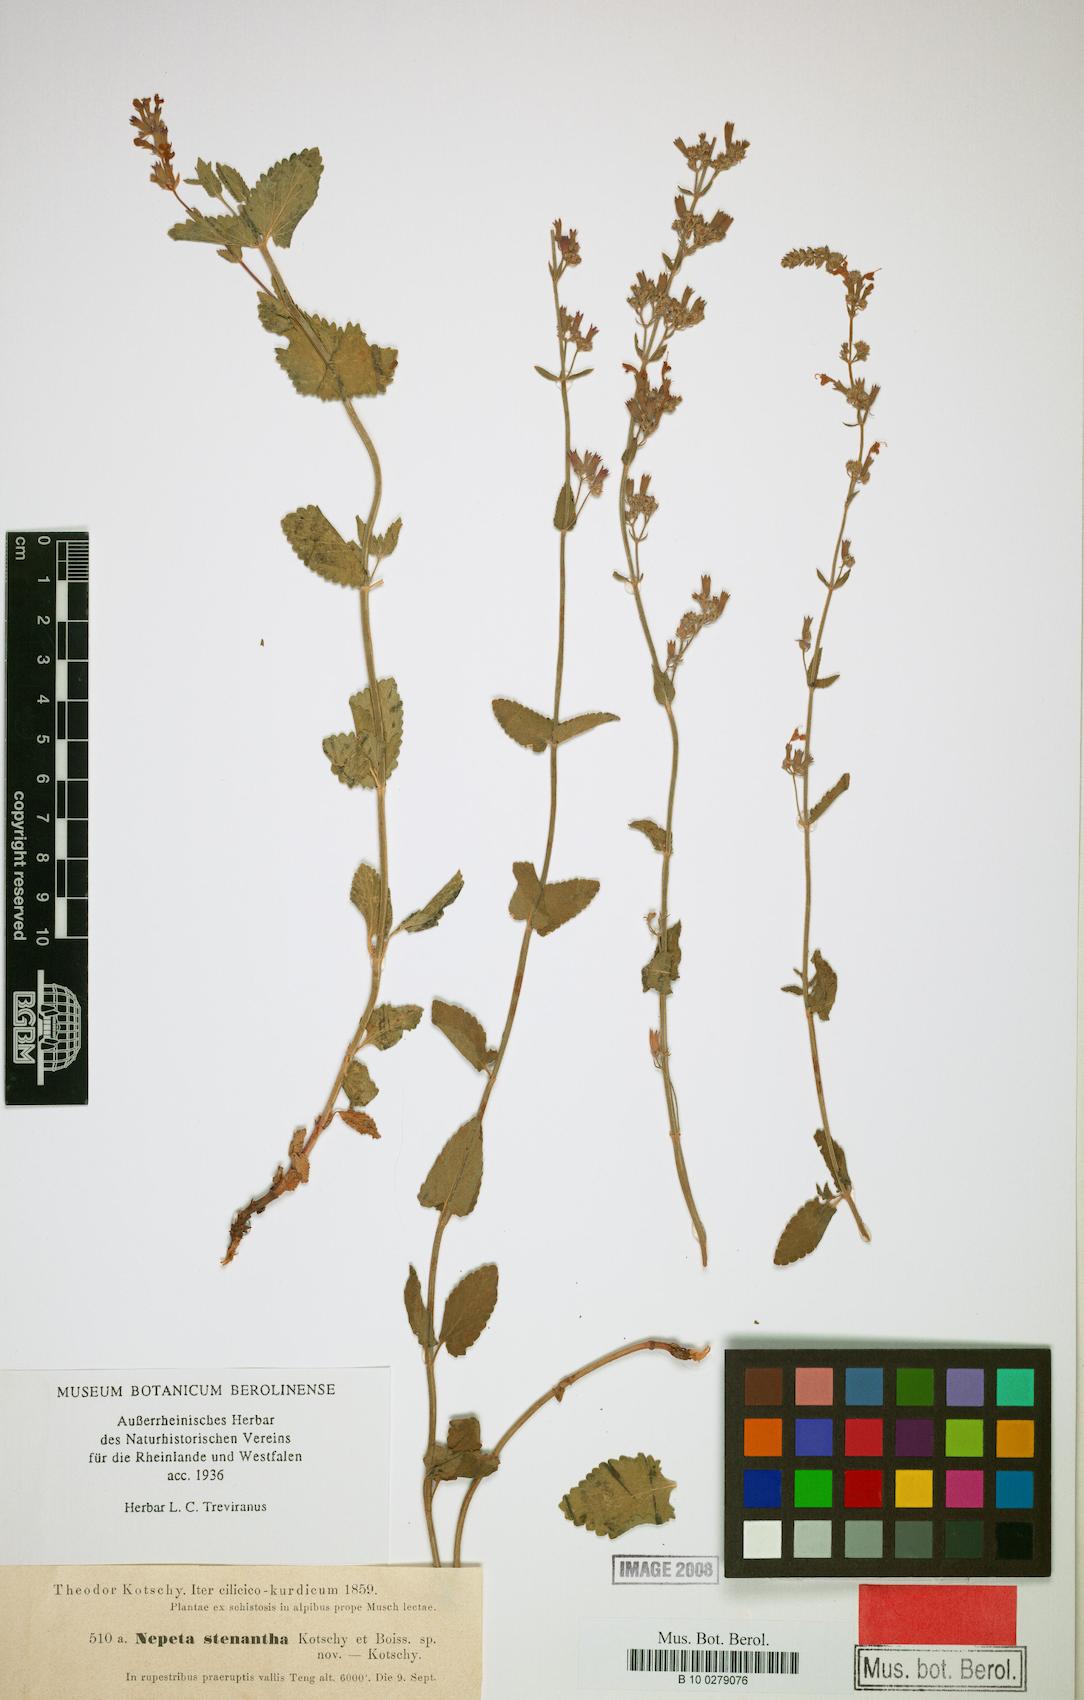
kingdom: Plantae
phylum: Tracheophyta
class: Magnoliopsida
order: Lamiales
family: Lamiaceae
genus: Nepeta
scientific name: Nepeta stenantha
